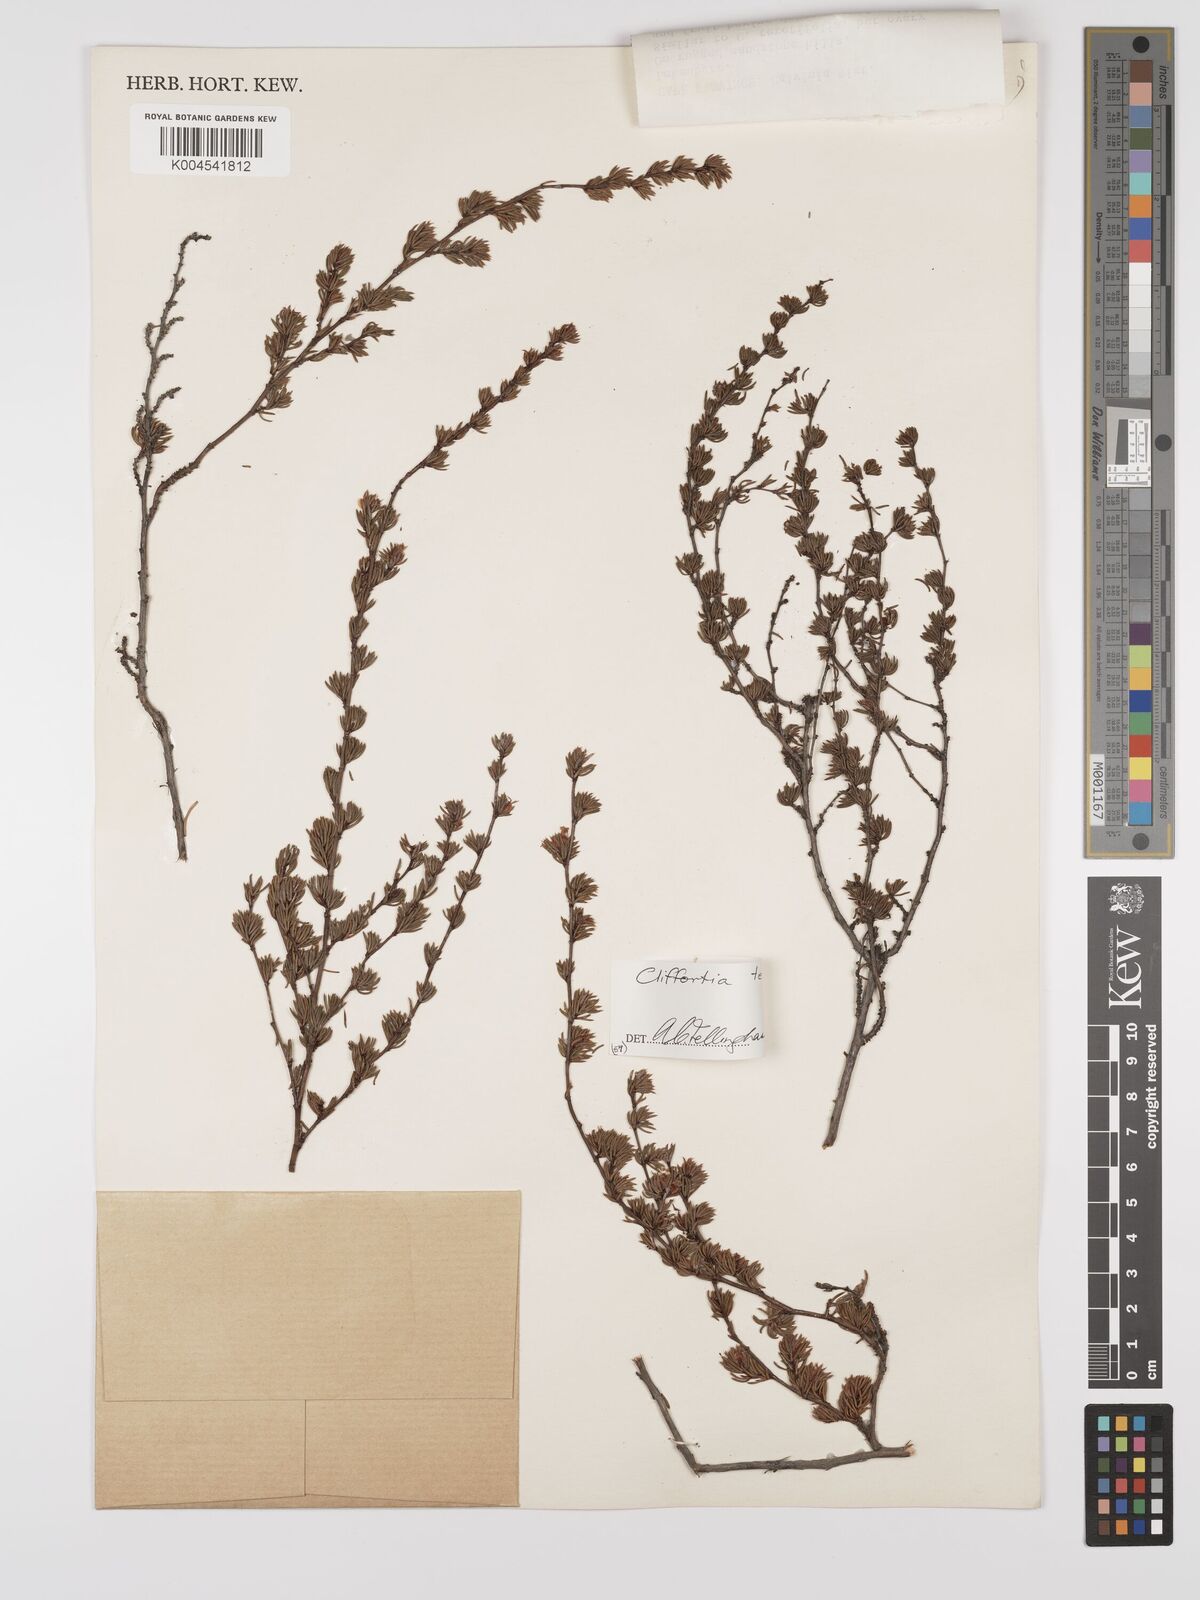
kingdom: Plantae
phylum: Tracheophyta
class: Magnoliopsida
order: Rosales
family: Rosaceae
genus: Cliffortia
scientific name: Cliffortia teretifolia
